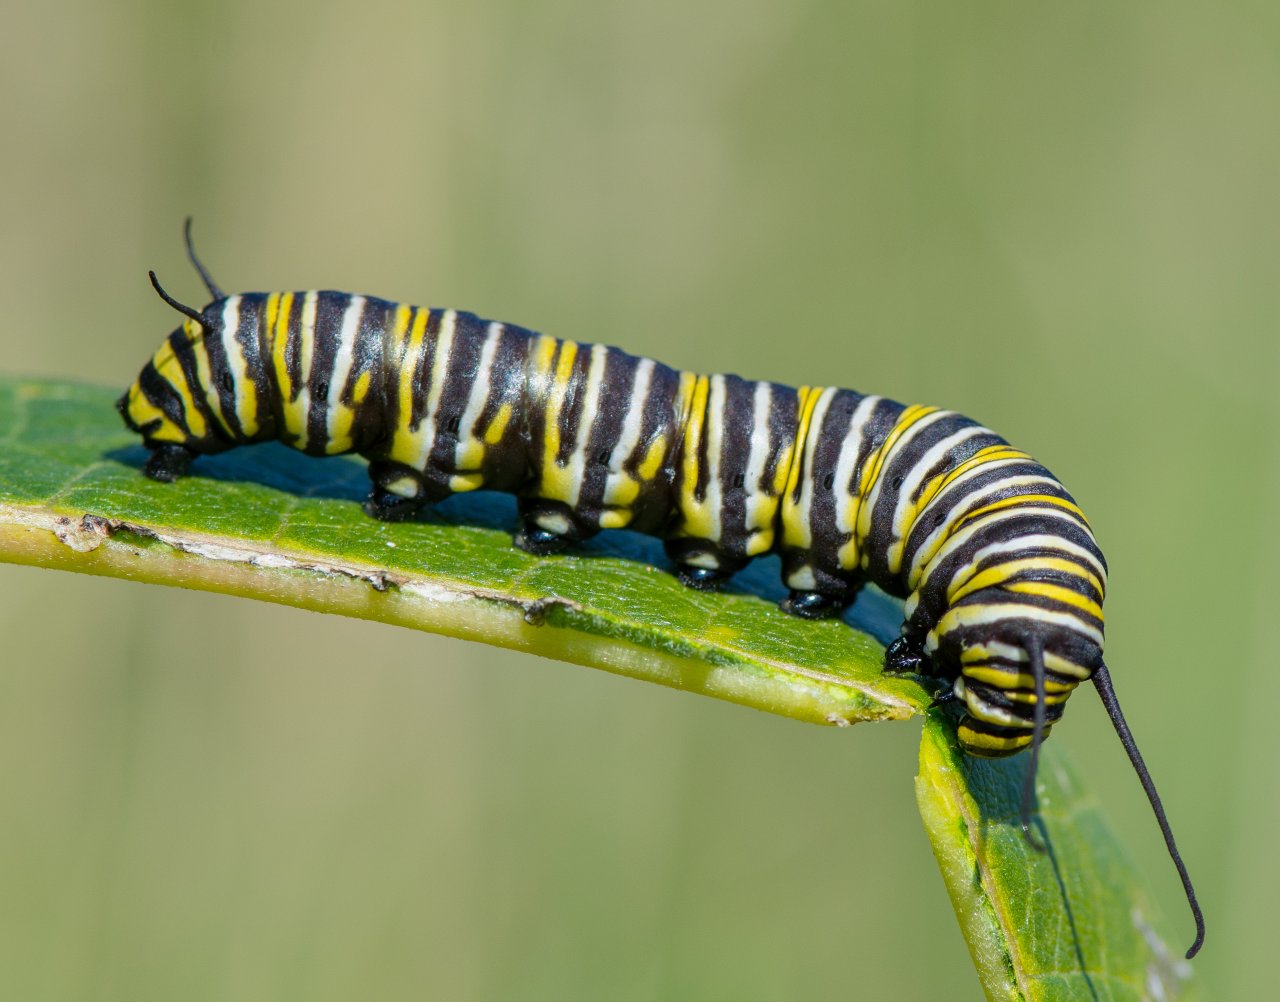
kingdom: Animalia
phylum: Arthropoda
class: Insecta
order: Lepidoptera
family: Nymphalidae
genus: Danaus
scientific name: Danaus plexippus
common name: Monarch
